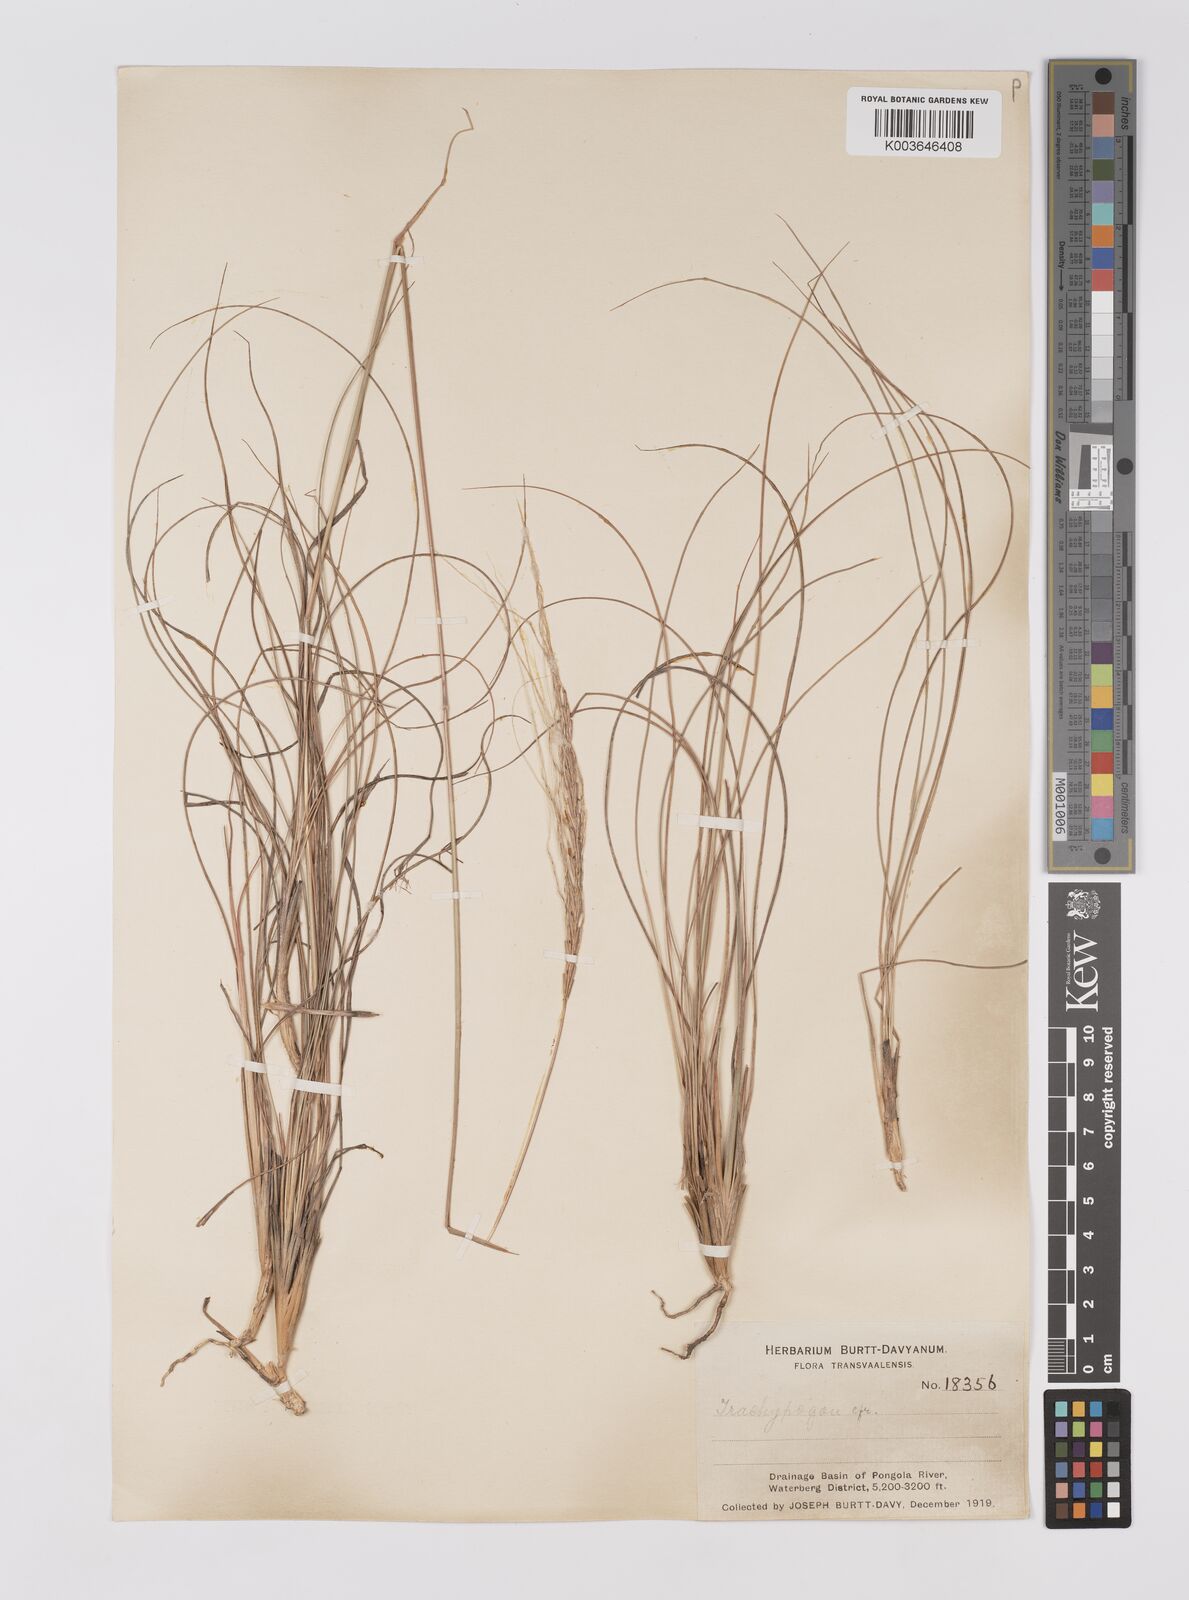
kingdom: Plantae
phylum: Tracheophyta
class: Liliopsida
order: Poales
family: Poaceae
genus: Trachypogon
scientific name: Trachypogon spicatus
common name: Crinkle-awn
